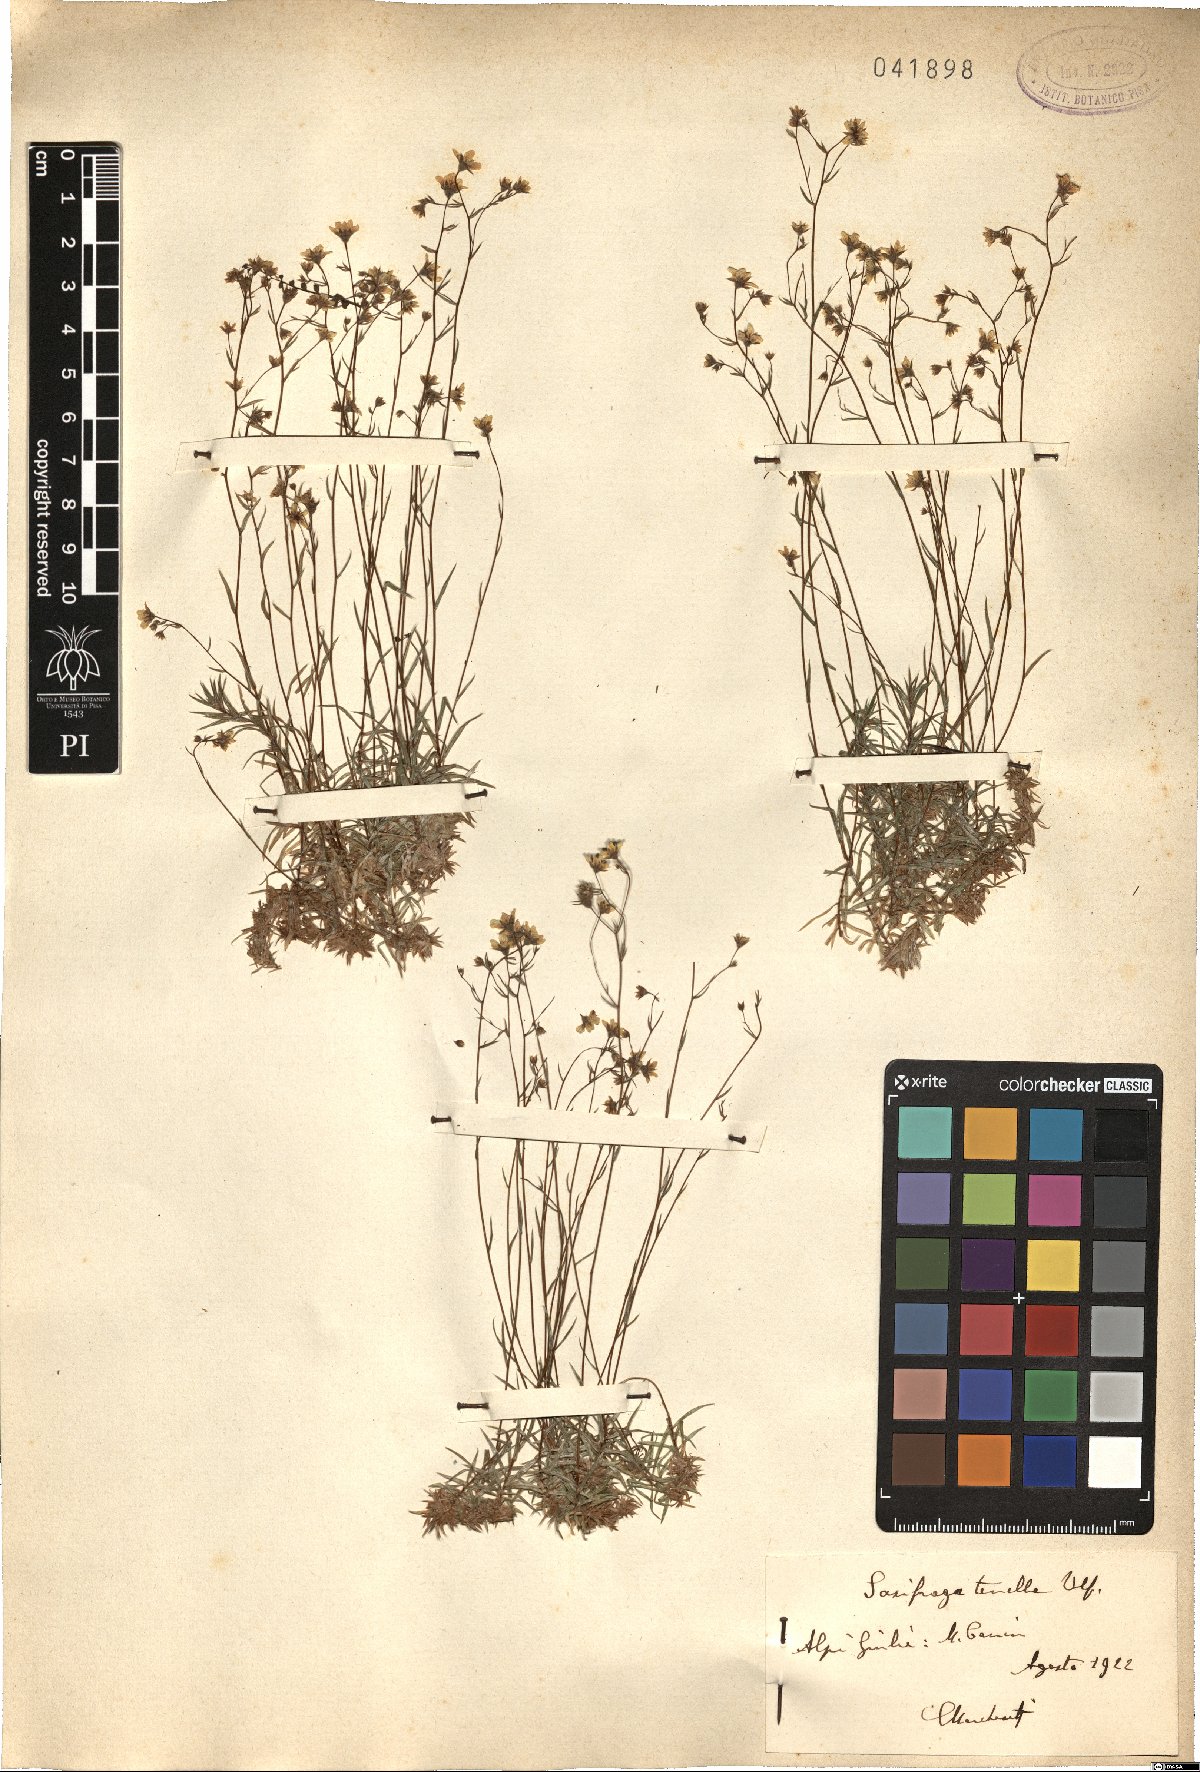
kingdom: Plantae
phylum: Tracheophyta
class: Magnoliopsida
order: Saxifragales
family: Saxifragaceae
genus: Saxifraga
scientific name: Saxifraga tenella
